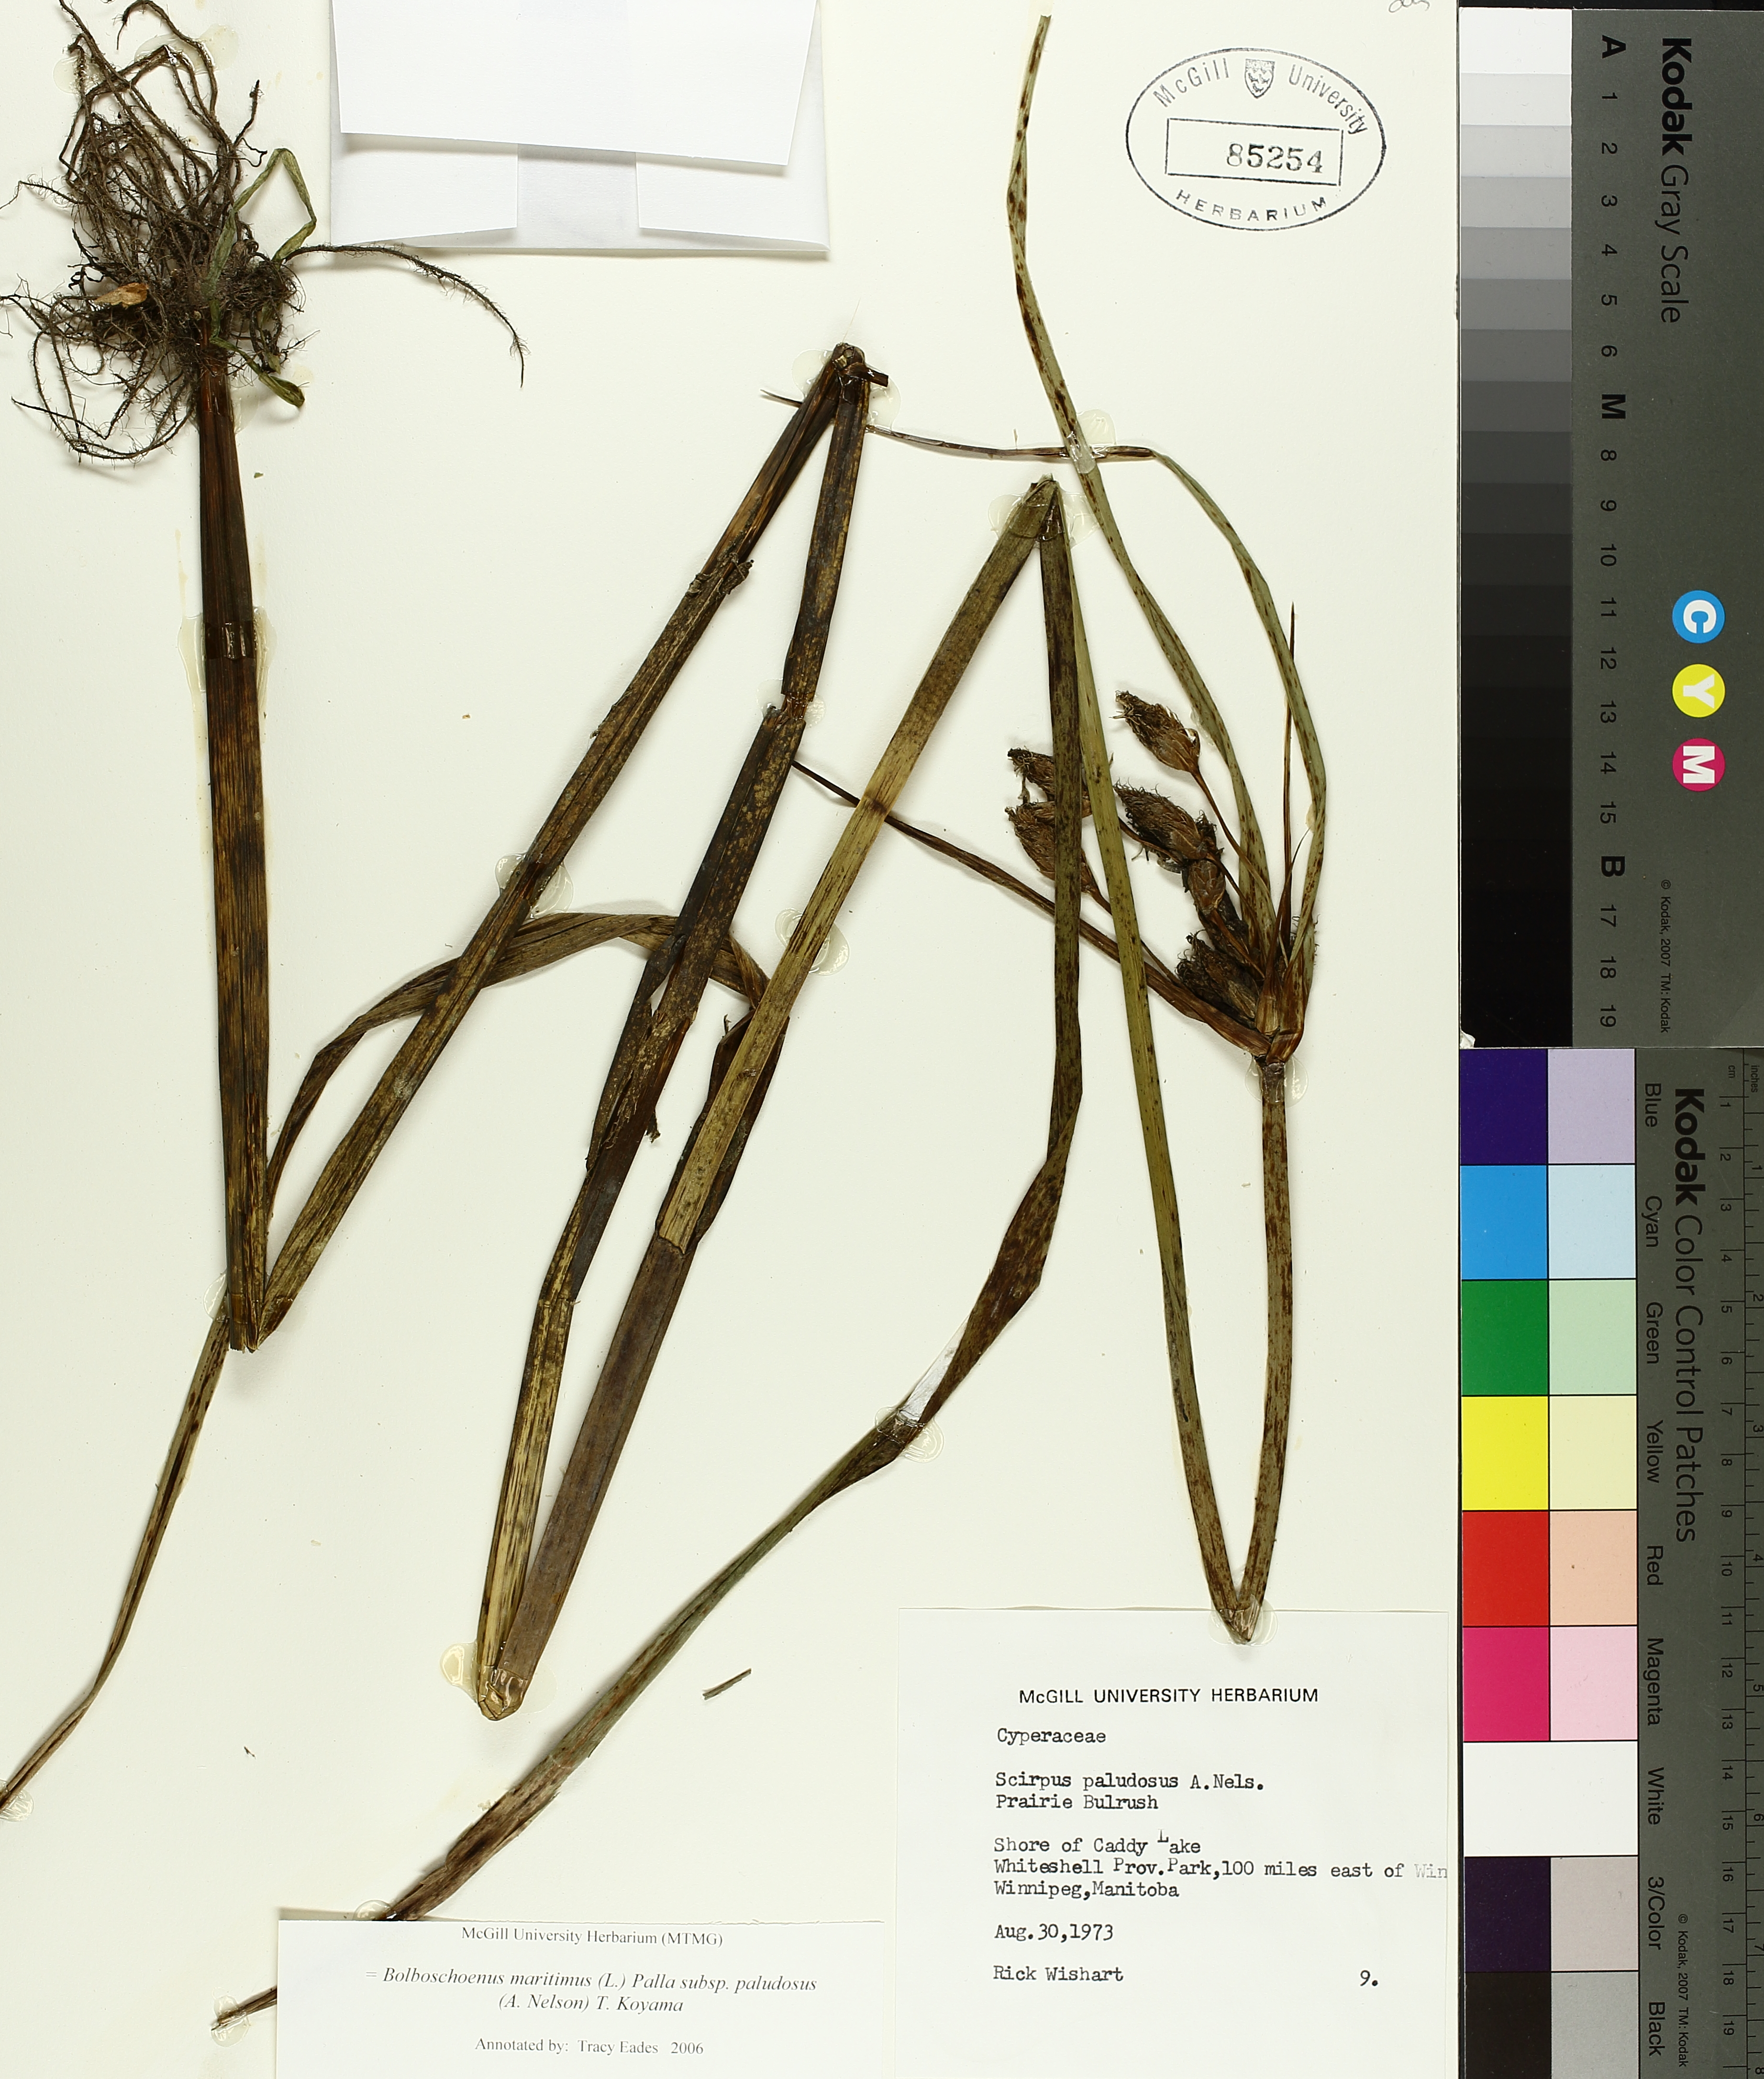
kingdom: Plantae
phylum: Tracheophyta
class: Liliopsida
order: Poales
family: Cyperaceae
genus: Bolboschoenus
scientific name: Bolboschoenus maritimus
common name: Sea club-rush
